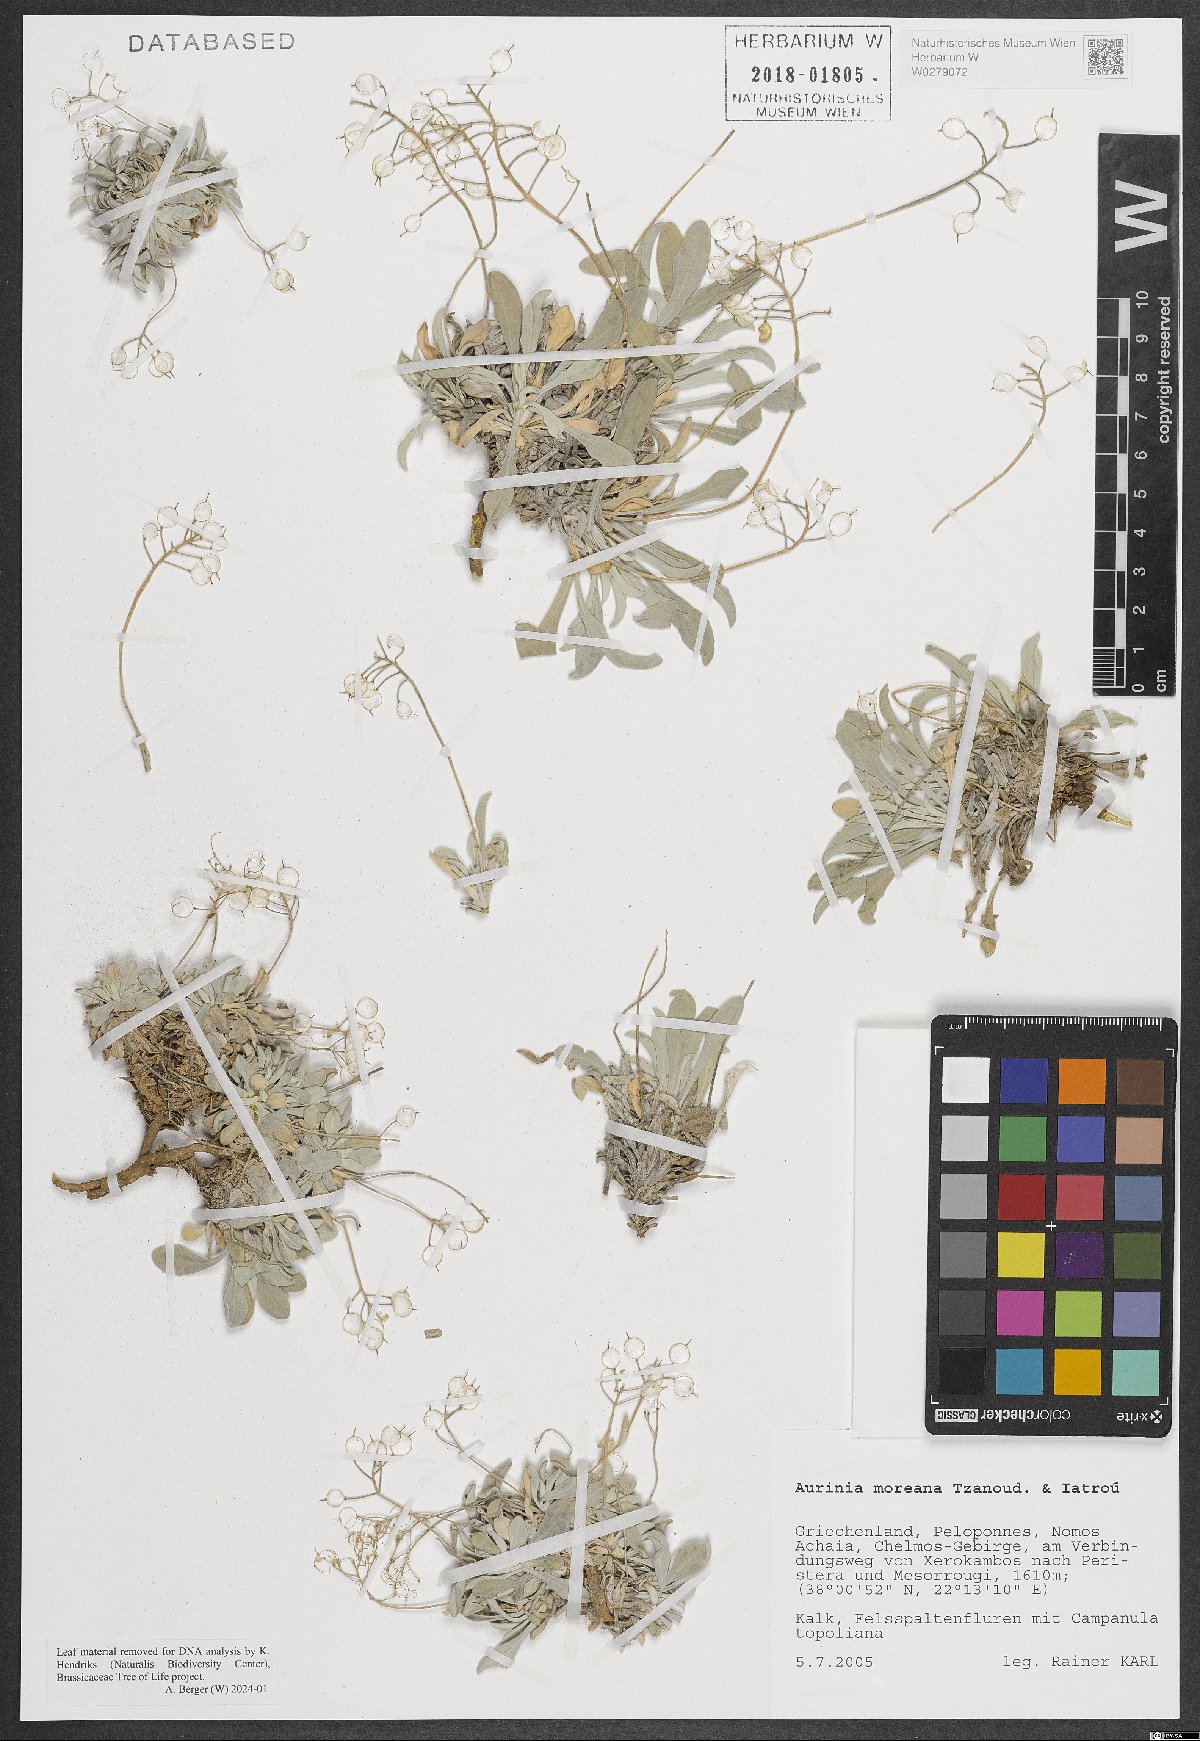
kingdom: Plantae
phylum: Tracheophyta
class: Magnoliopsida
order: Brassicales
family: Brassicaceae
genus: Aurinia
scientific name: Aurinia moreana
